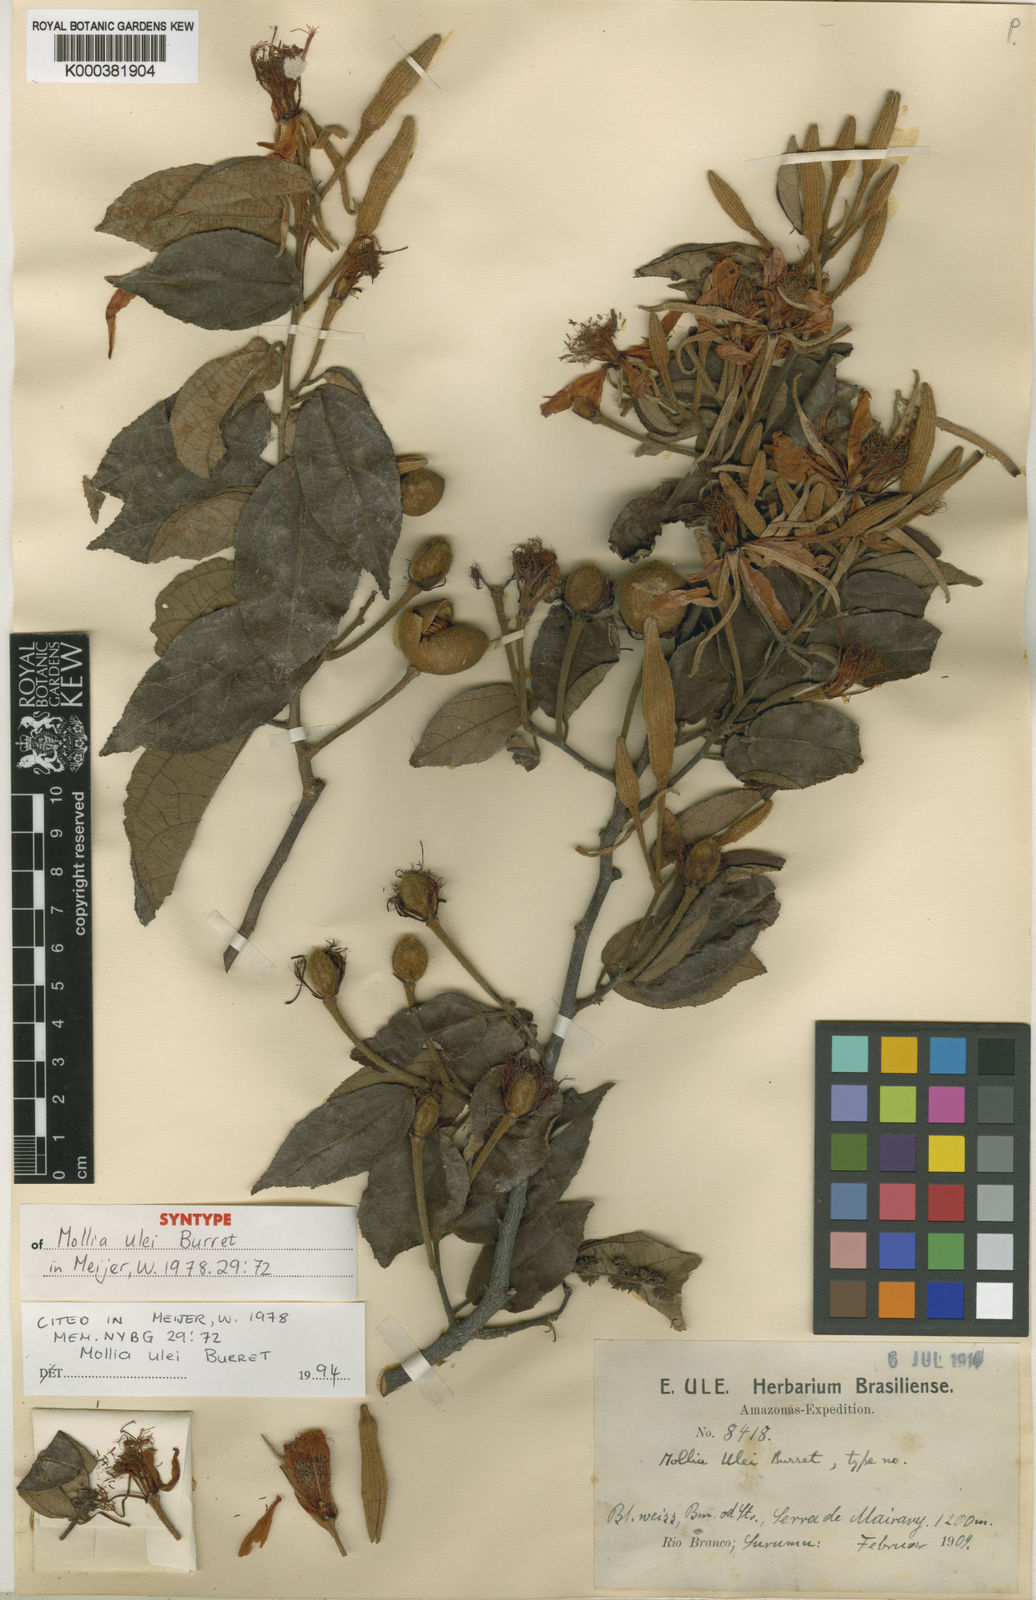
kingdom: Plantae
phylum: Tracheophyta
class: Magnoliopsida
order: Malvales
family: Malvaceae
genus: Mollia
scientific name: Mollia ulei
